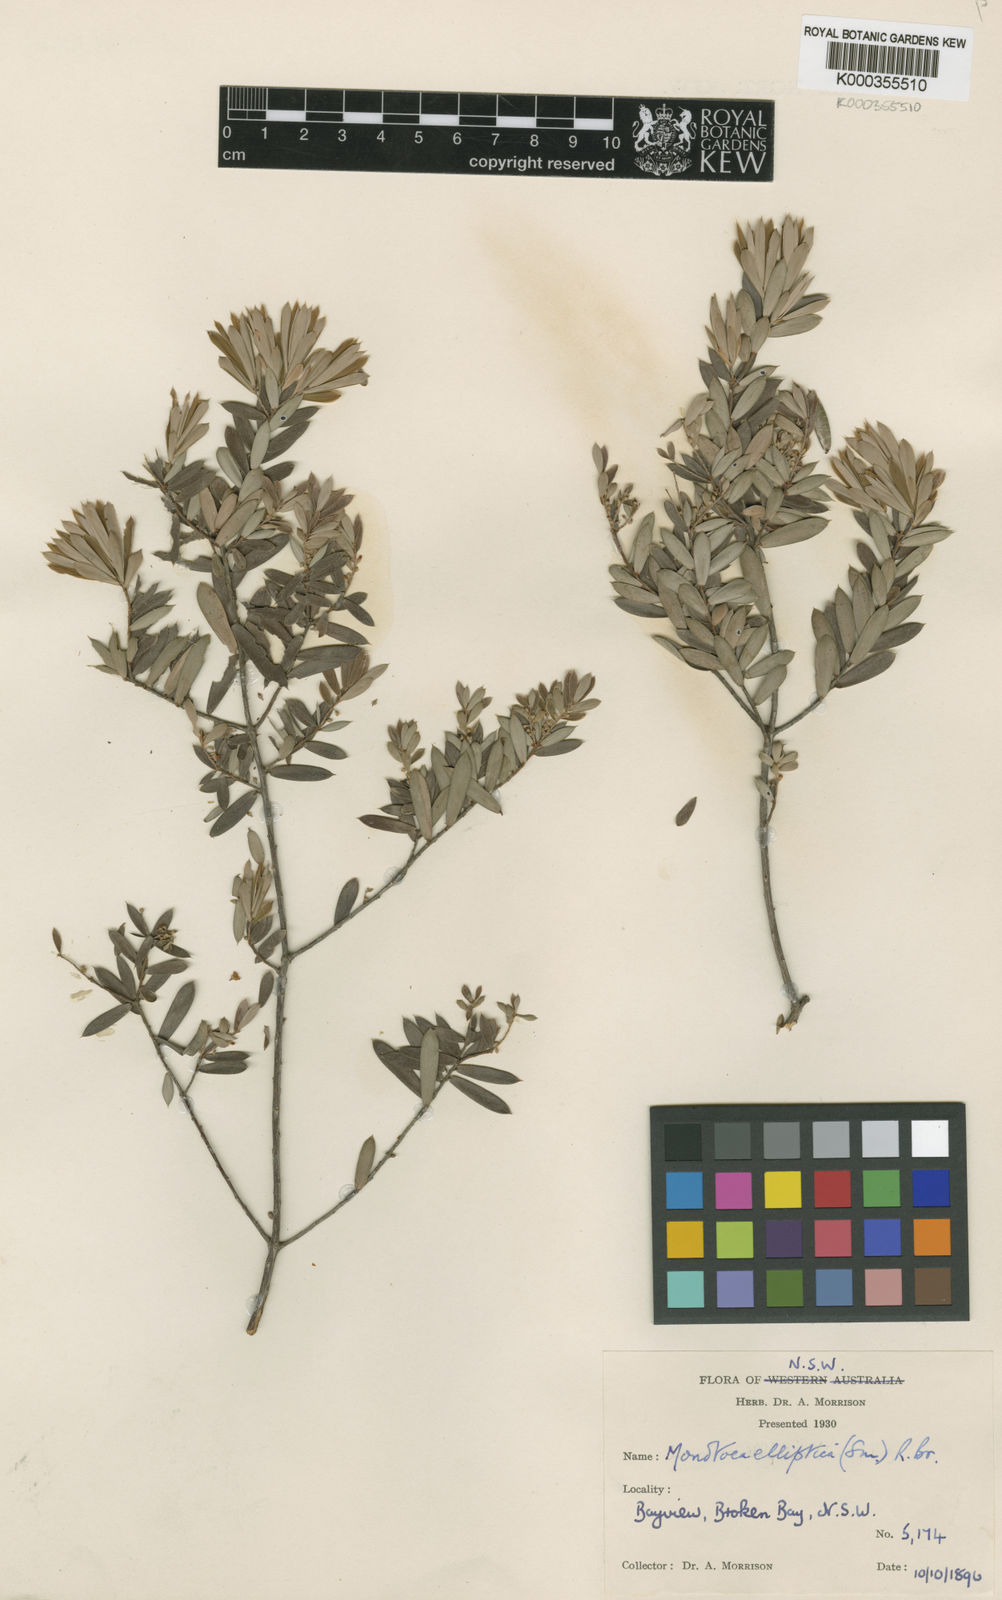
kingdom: Plantae
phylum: Tracheophyta
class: Magnoliopsida
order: Ericales
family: Ericaceae
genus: Monotoca
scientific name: Monotoca elliptica
